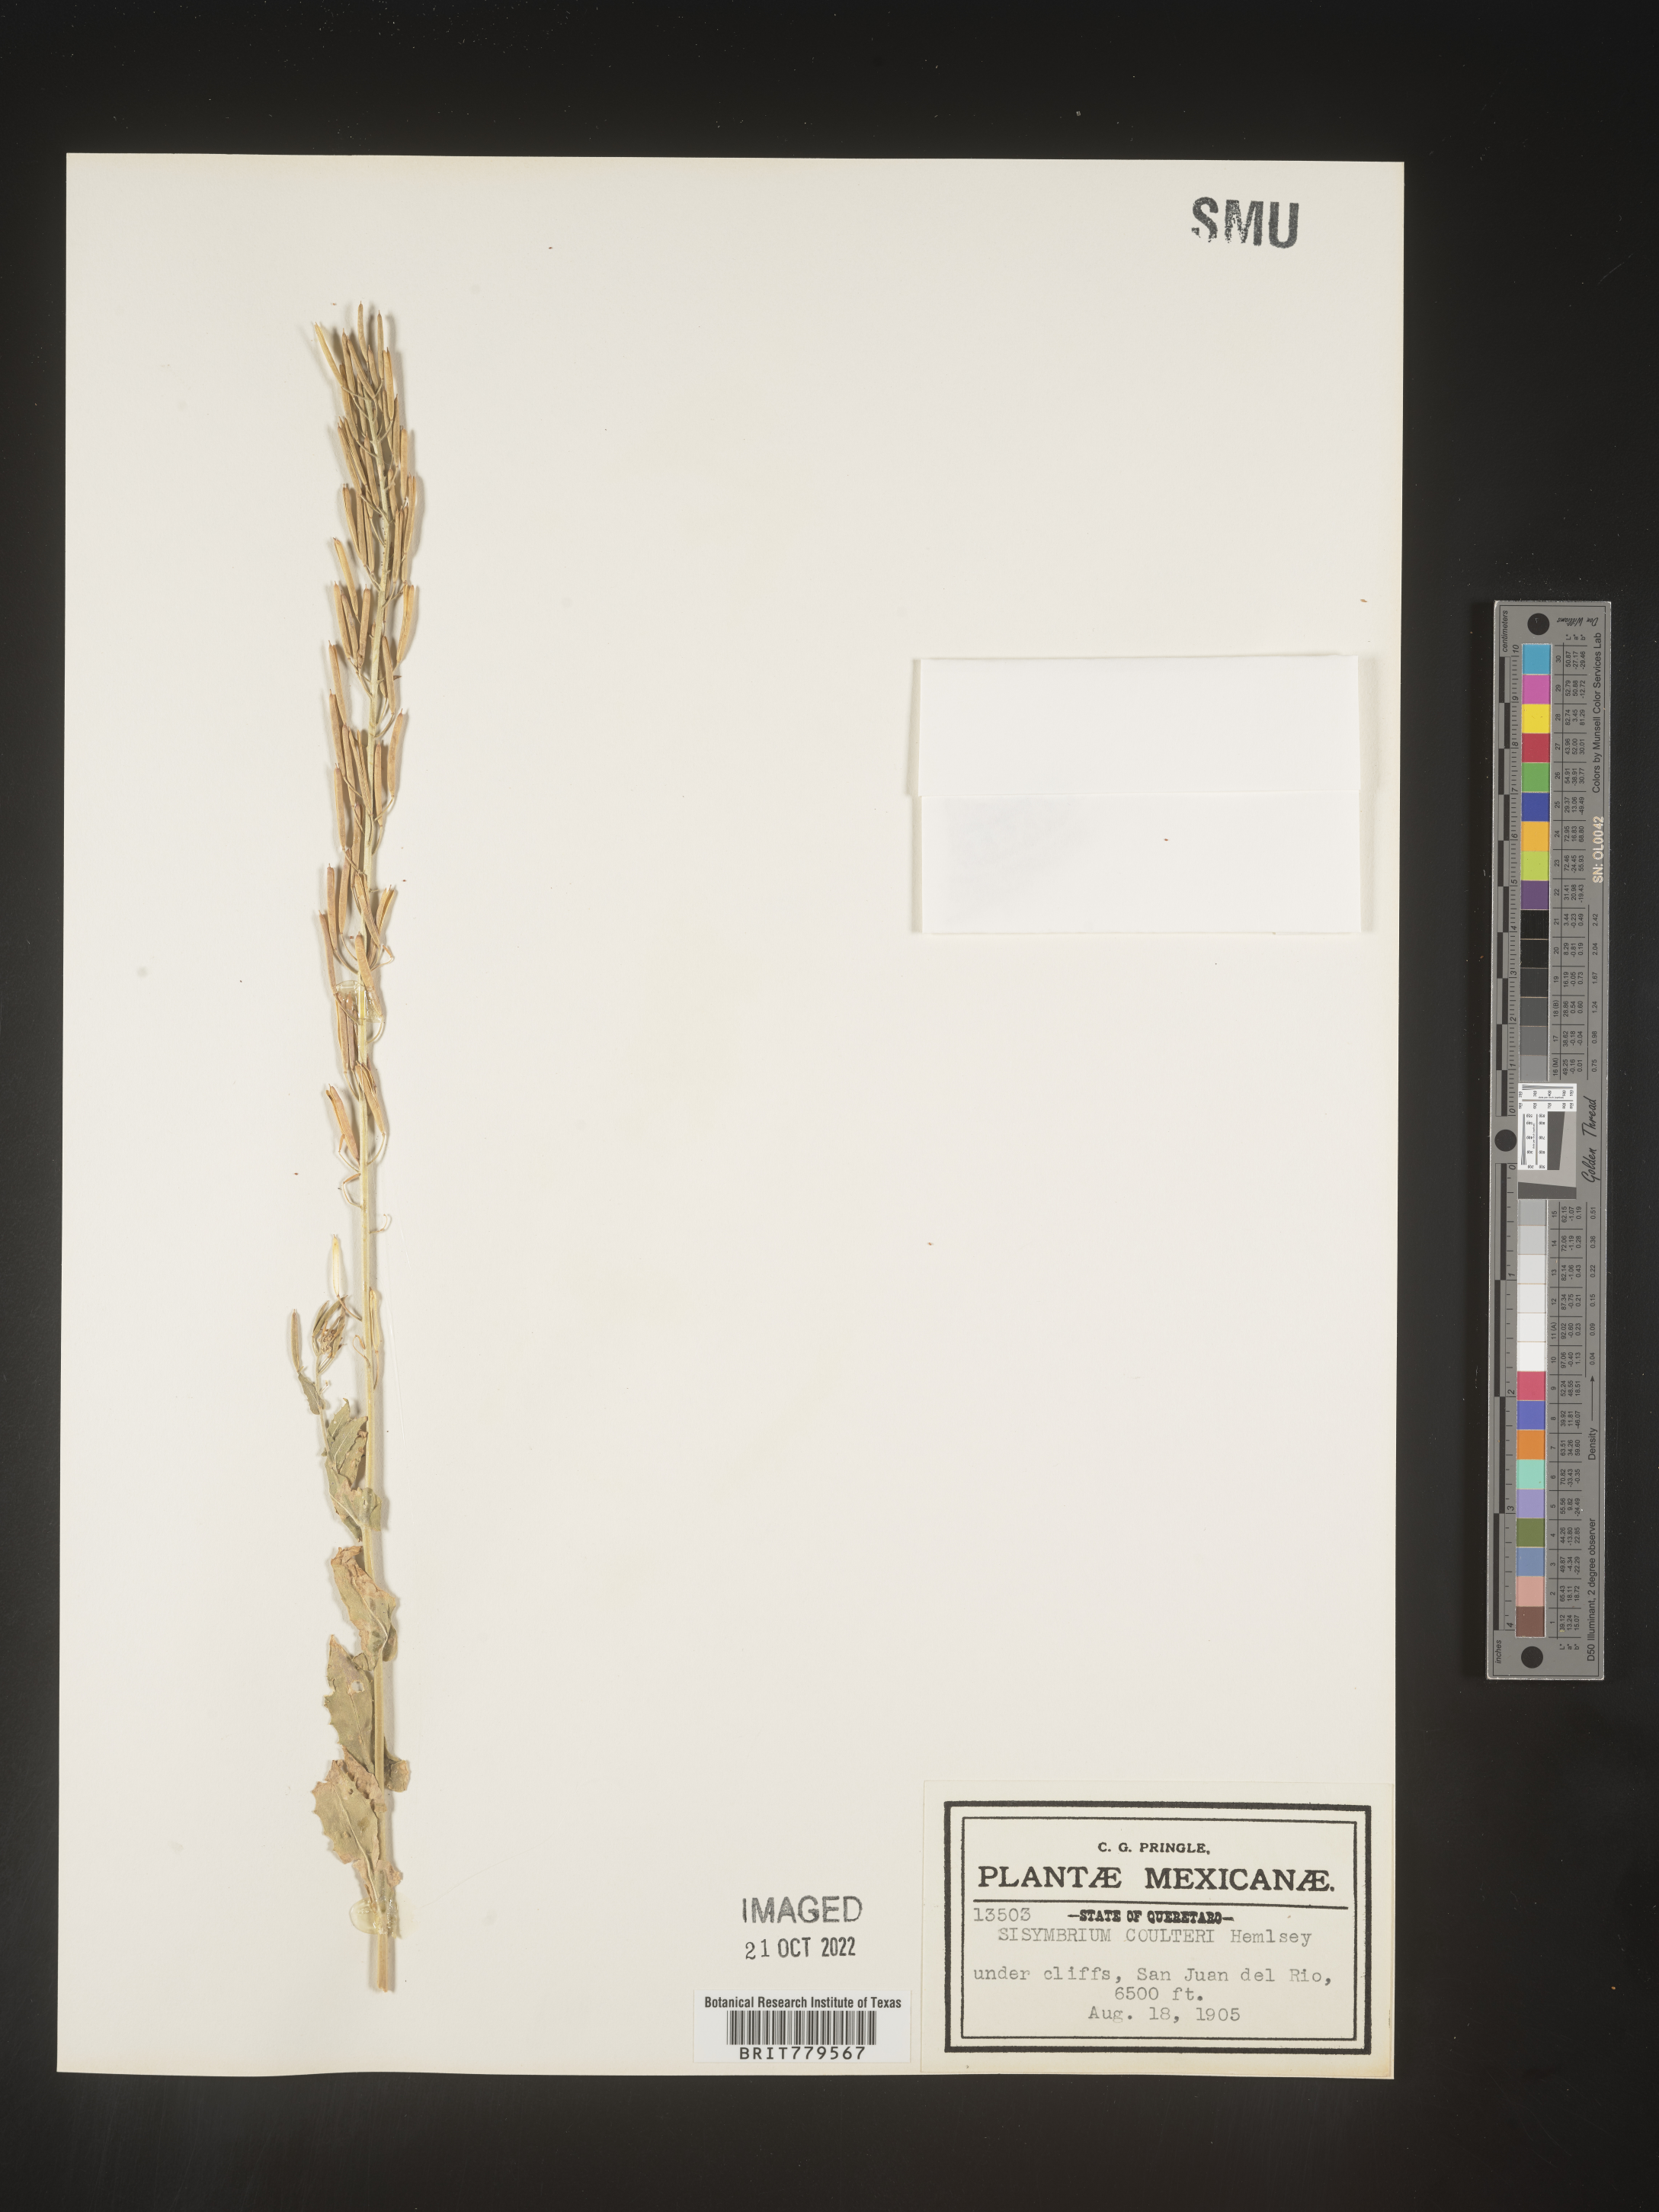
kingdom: Plantae
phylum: Tracheophyta
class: Magnoliopsida
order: Brassicales
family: Brassicaceae
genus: Sisymbrium
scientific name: Sisymbrium
